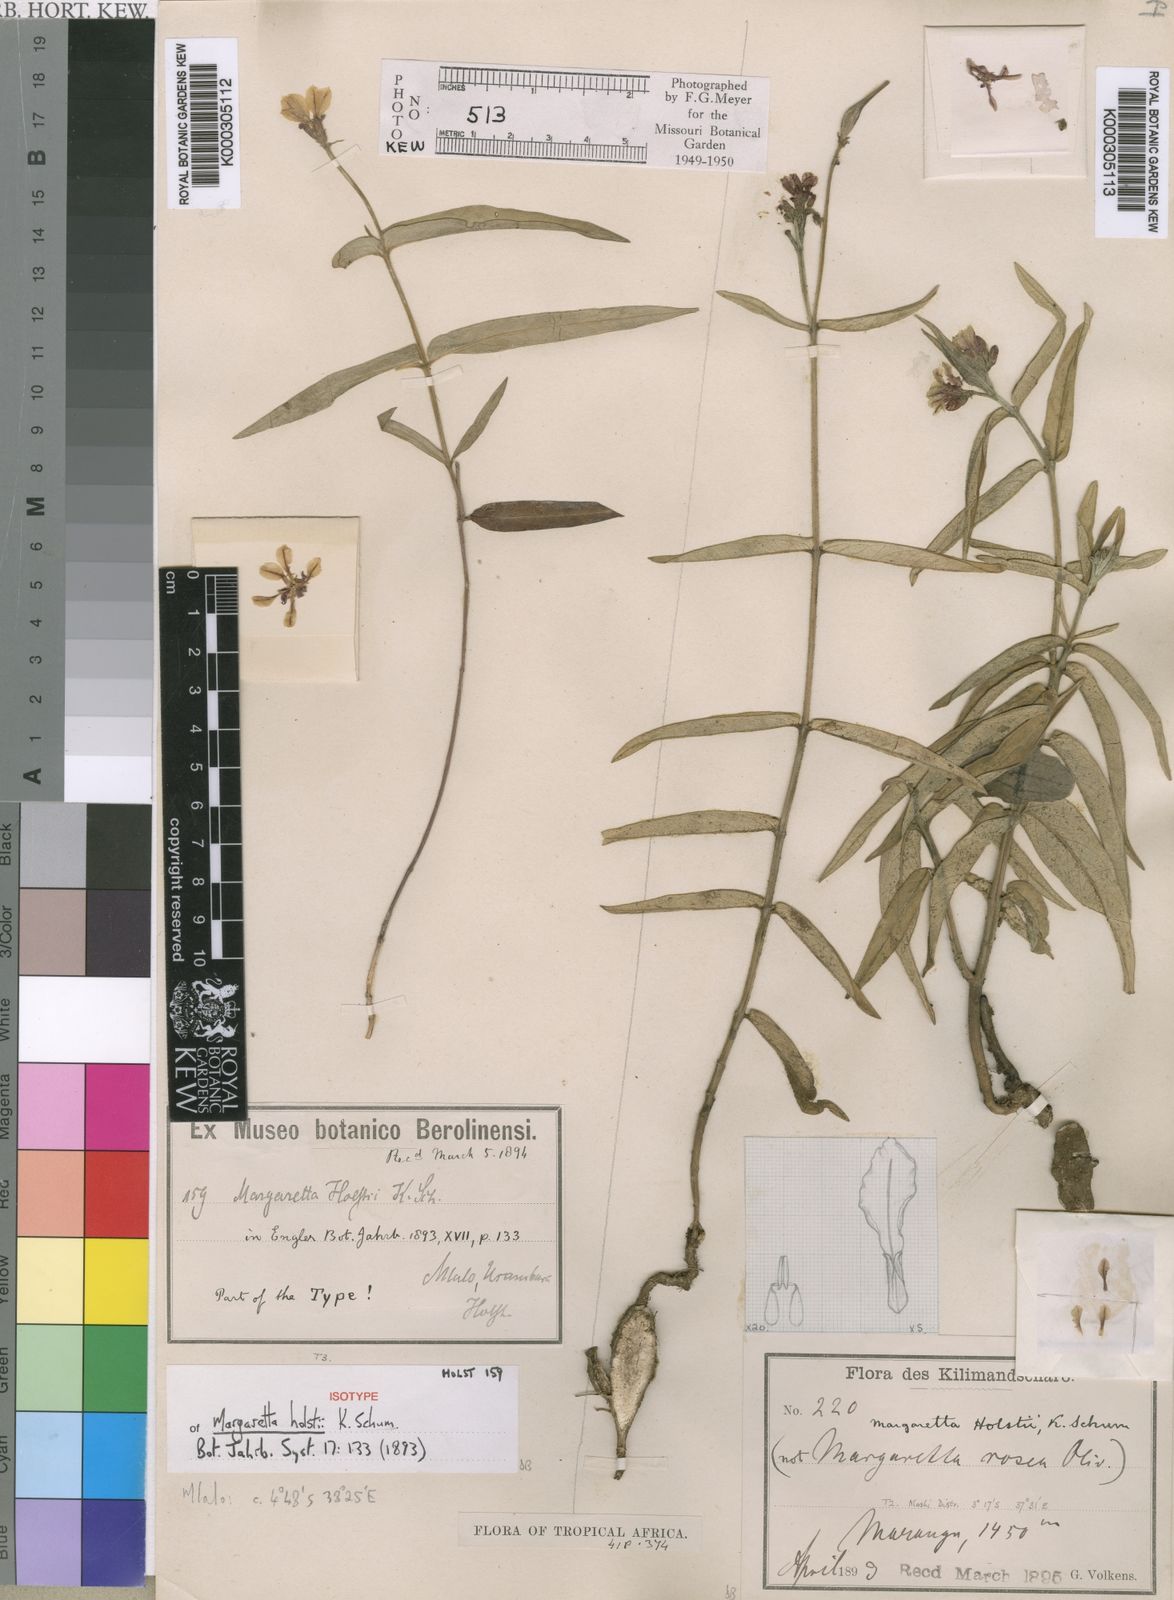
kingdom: Plantae
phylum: Tracheophyta
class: Magnoliopsida
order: Gentianales
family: Apocynaceae
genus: Margaretta
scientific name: Margaretta rosea
